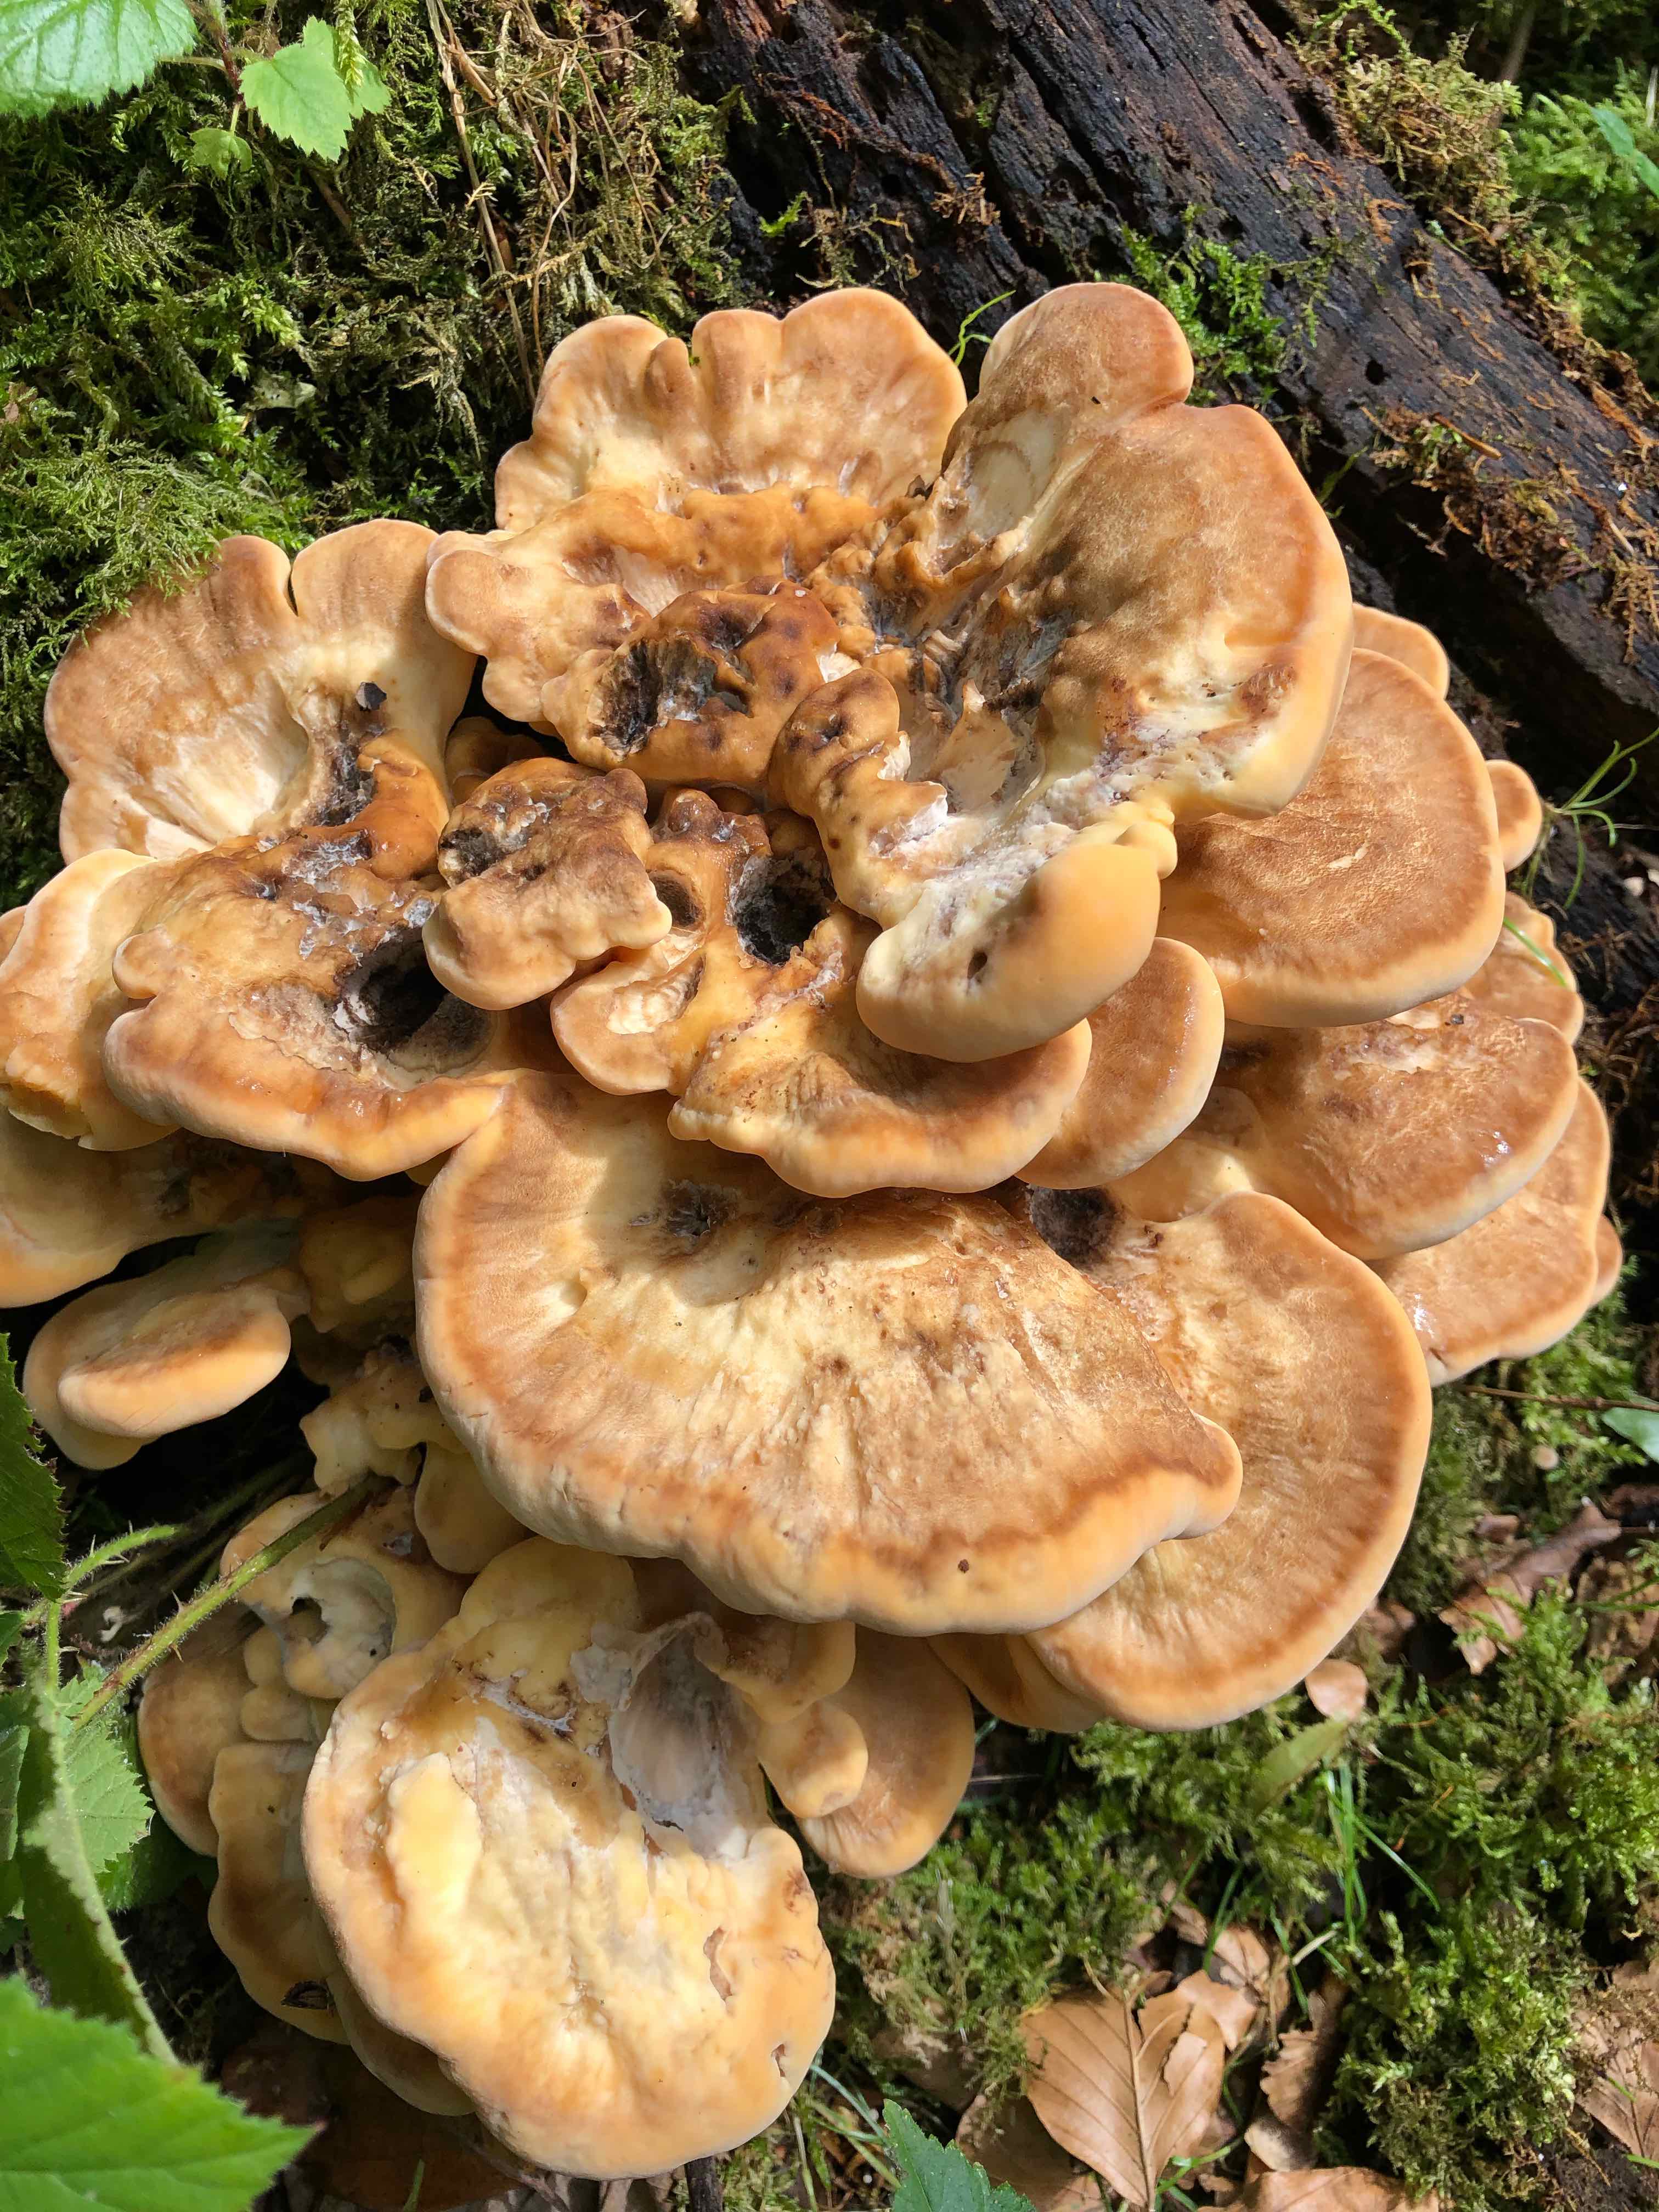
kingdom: Fungi
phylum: Basidiomycota
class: Agaricomycetes
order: Polyporales
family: Meripilaceae
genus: Meripilus
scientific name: Meripilus giganteus
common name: kæmpeporesvamp
